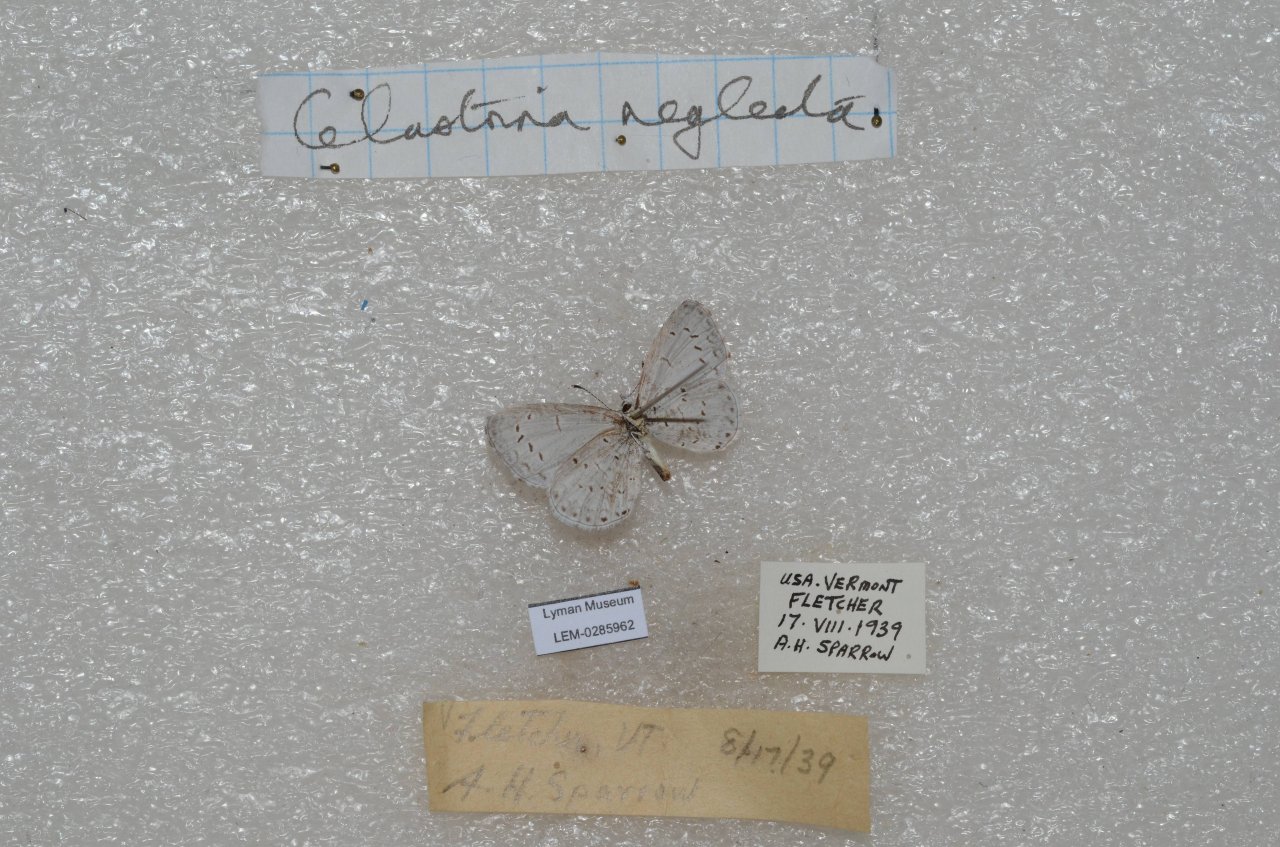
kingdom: Animalia
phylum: Arthropoda
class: Insecta
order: Lepidoptera
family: Lycaenidae
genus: Cyaniris
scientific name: Cyaniris neglecta
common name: Summer Azure
